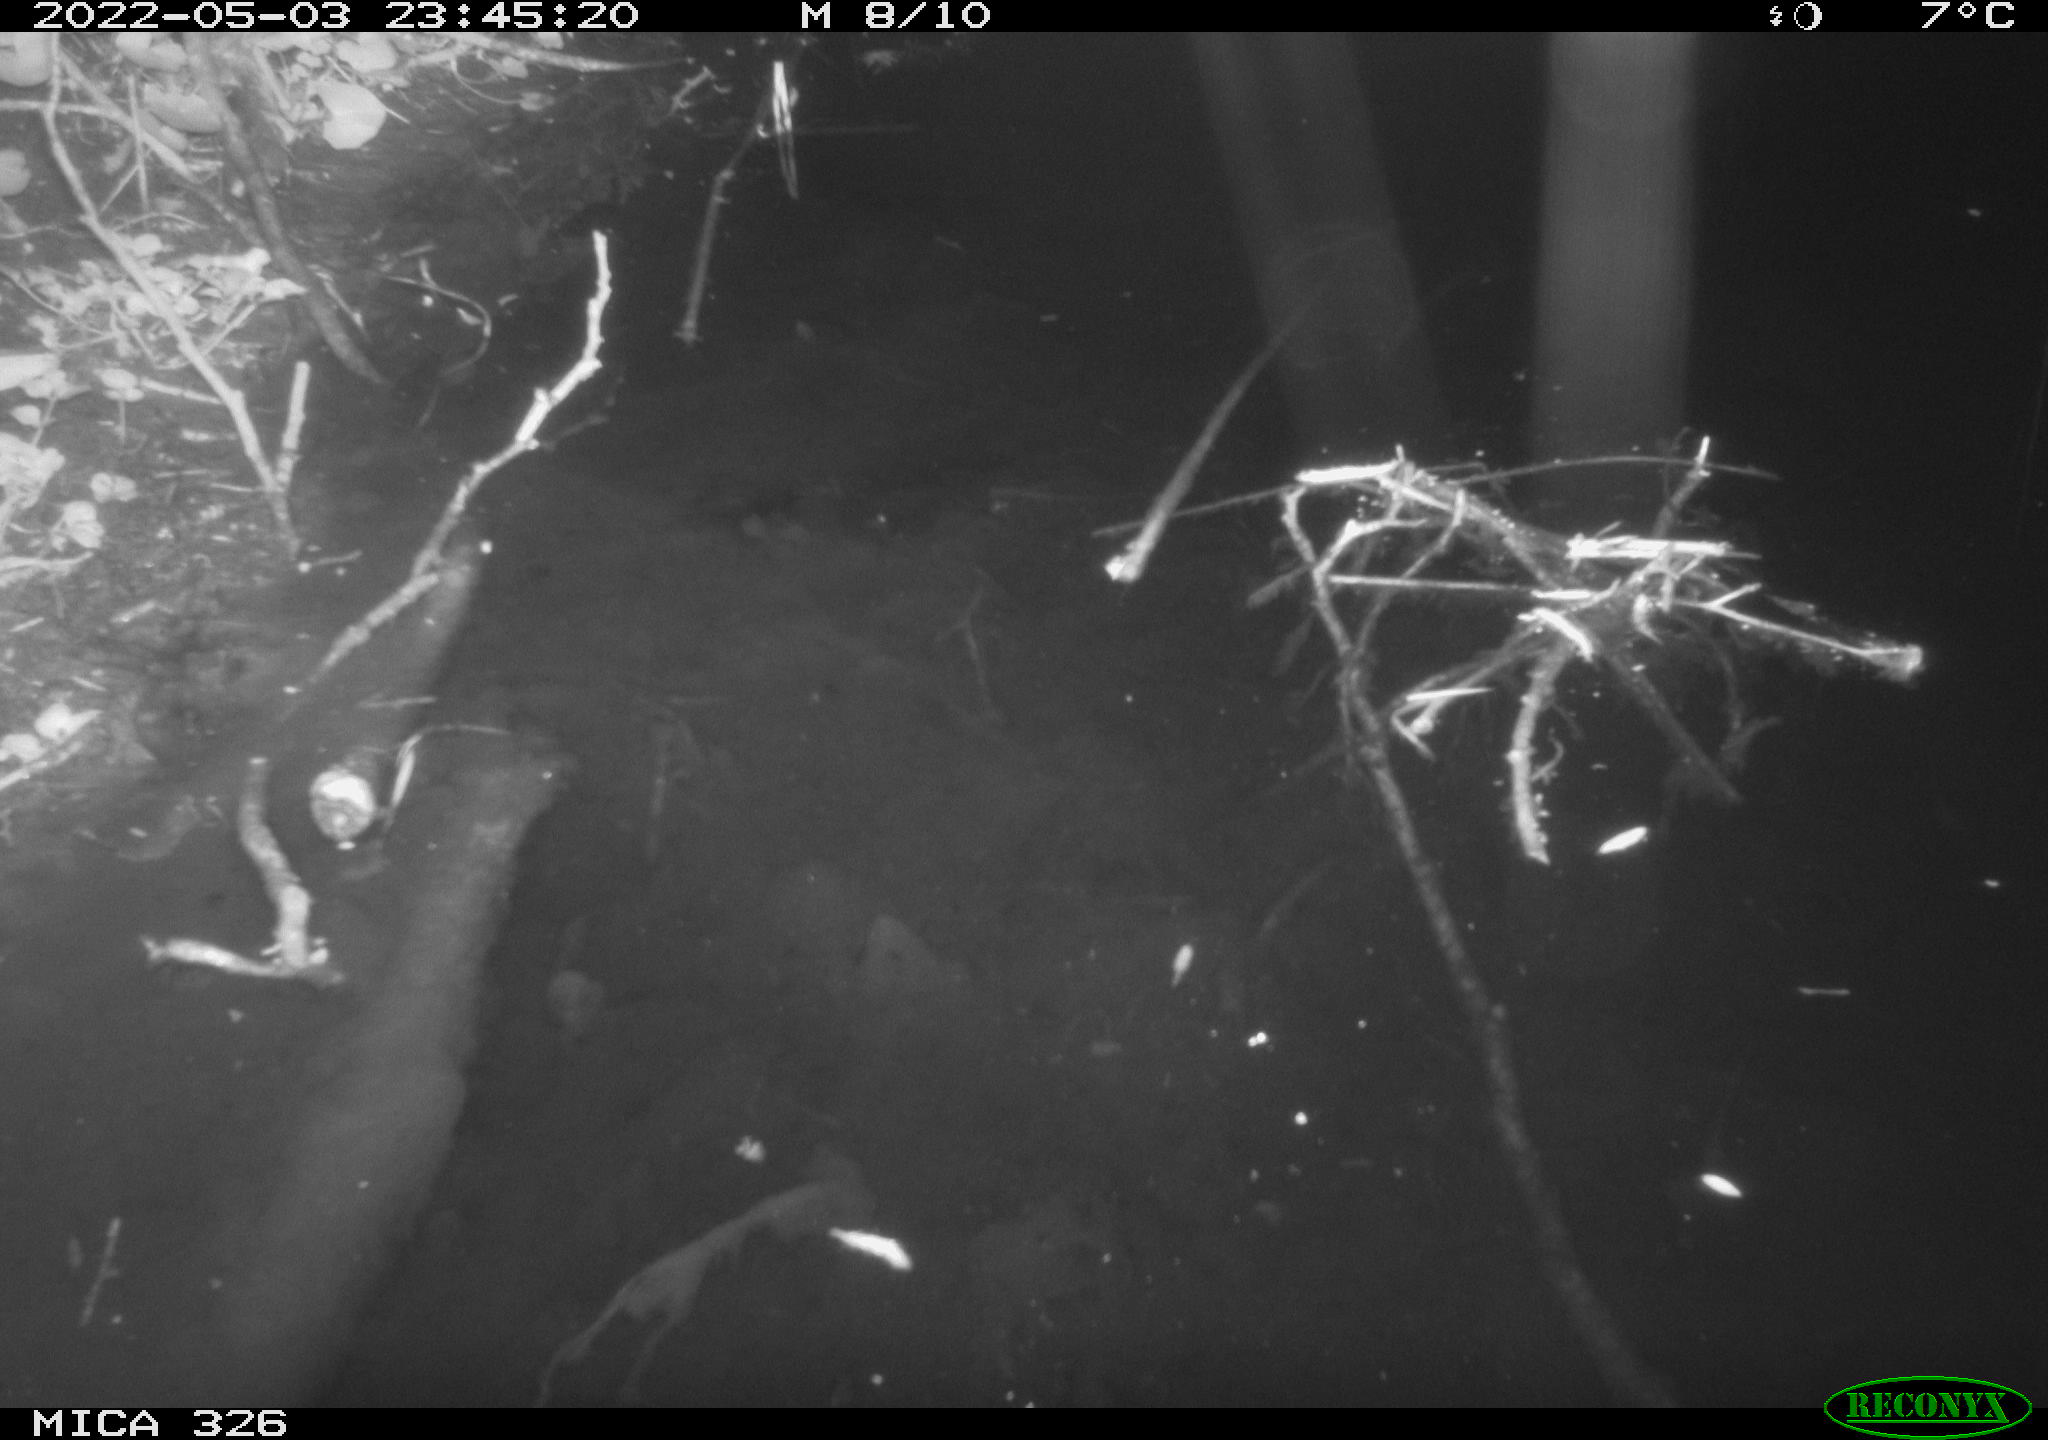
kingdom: Animalia
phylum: Chordata
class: Mammalia
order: Rodentia
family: Muridae
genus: Rattus
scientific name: Rattus norvegicus
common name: Brown rat
